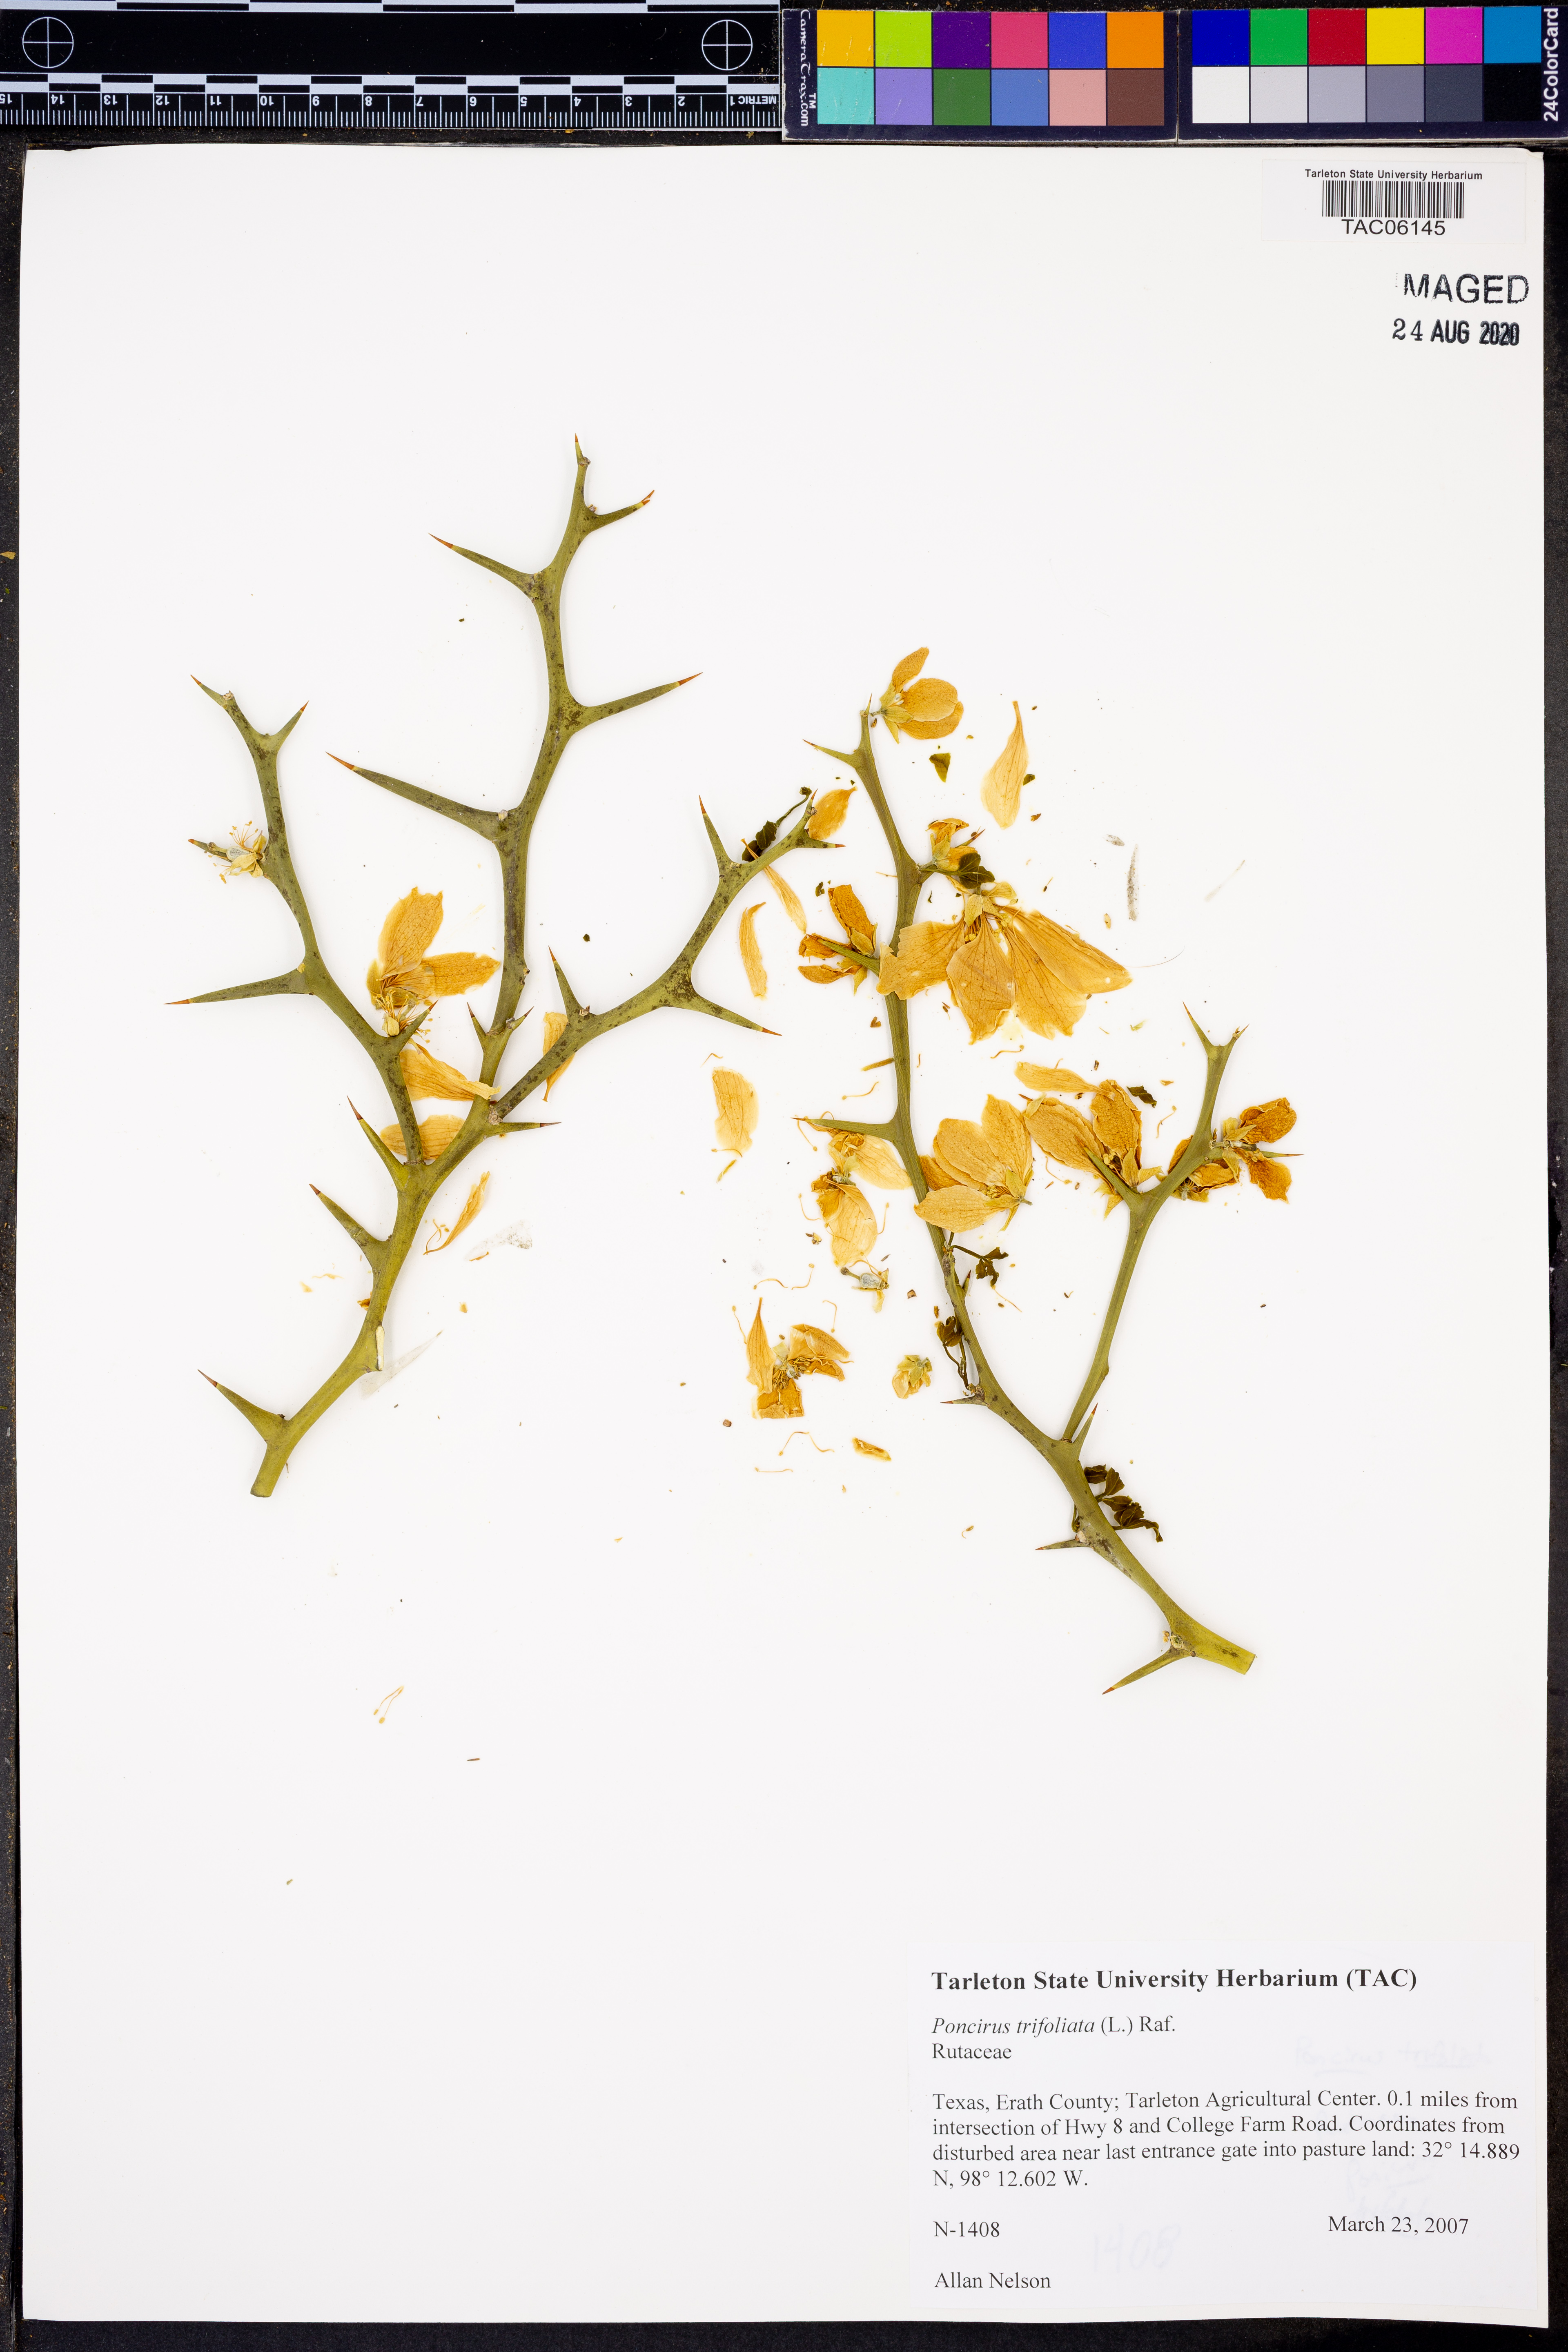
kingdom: Plantae
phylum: Tracheophyta
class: Magnoliopsida
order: Sapindales
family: Rutaceae
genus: Citrus
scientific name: Citrus trifoliata
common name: Japanese bitter-orange
